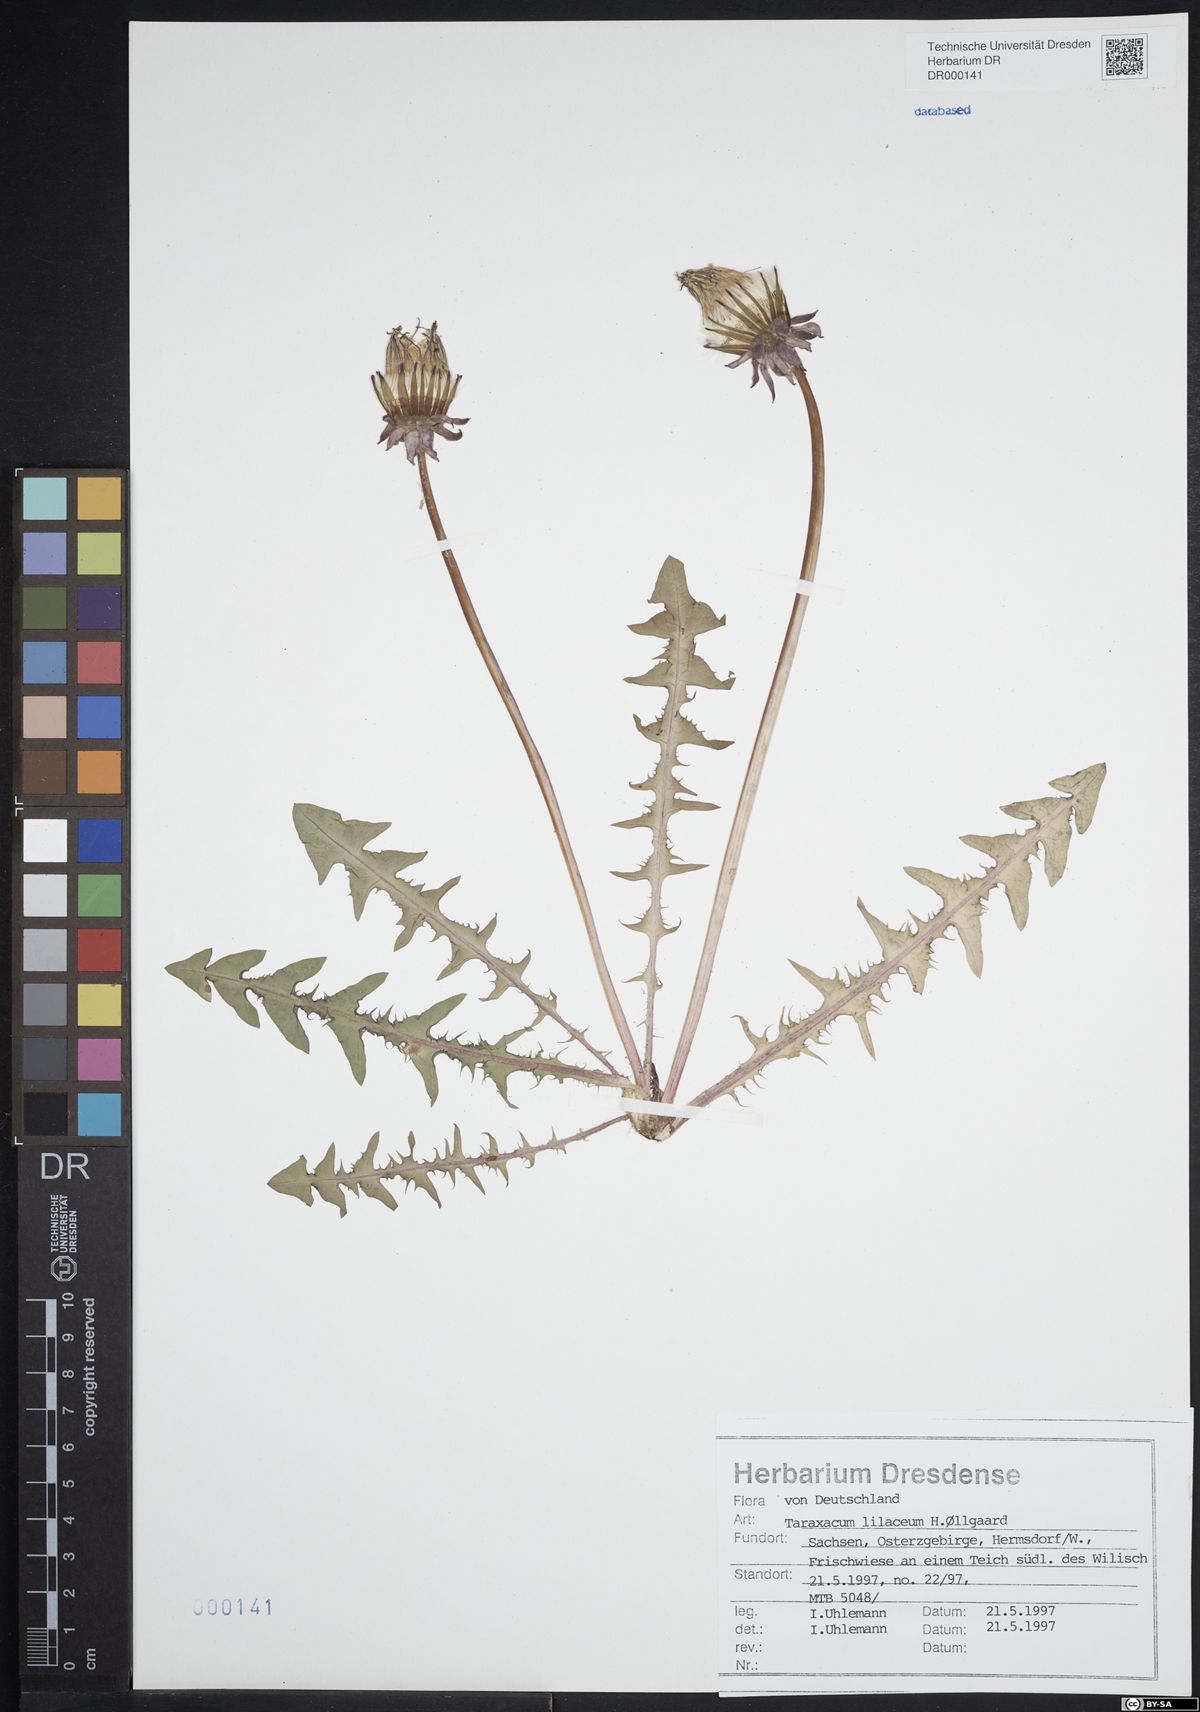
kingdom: Plantae
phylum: Tracheophyta
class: Magnoliopsida
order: Asterales
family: Asteraceae
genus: Taraxacum
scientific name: Taraxacum floccosum
